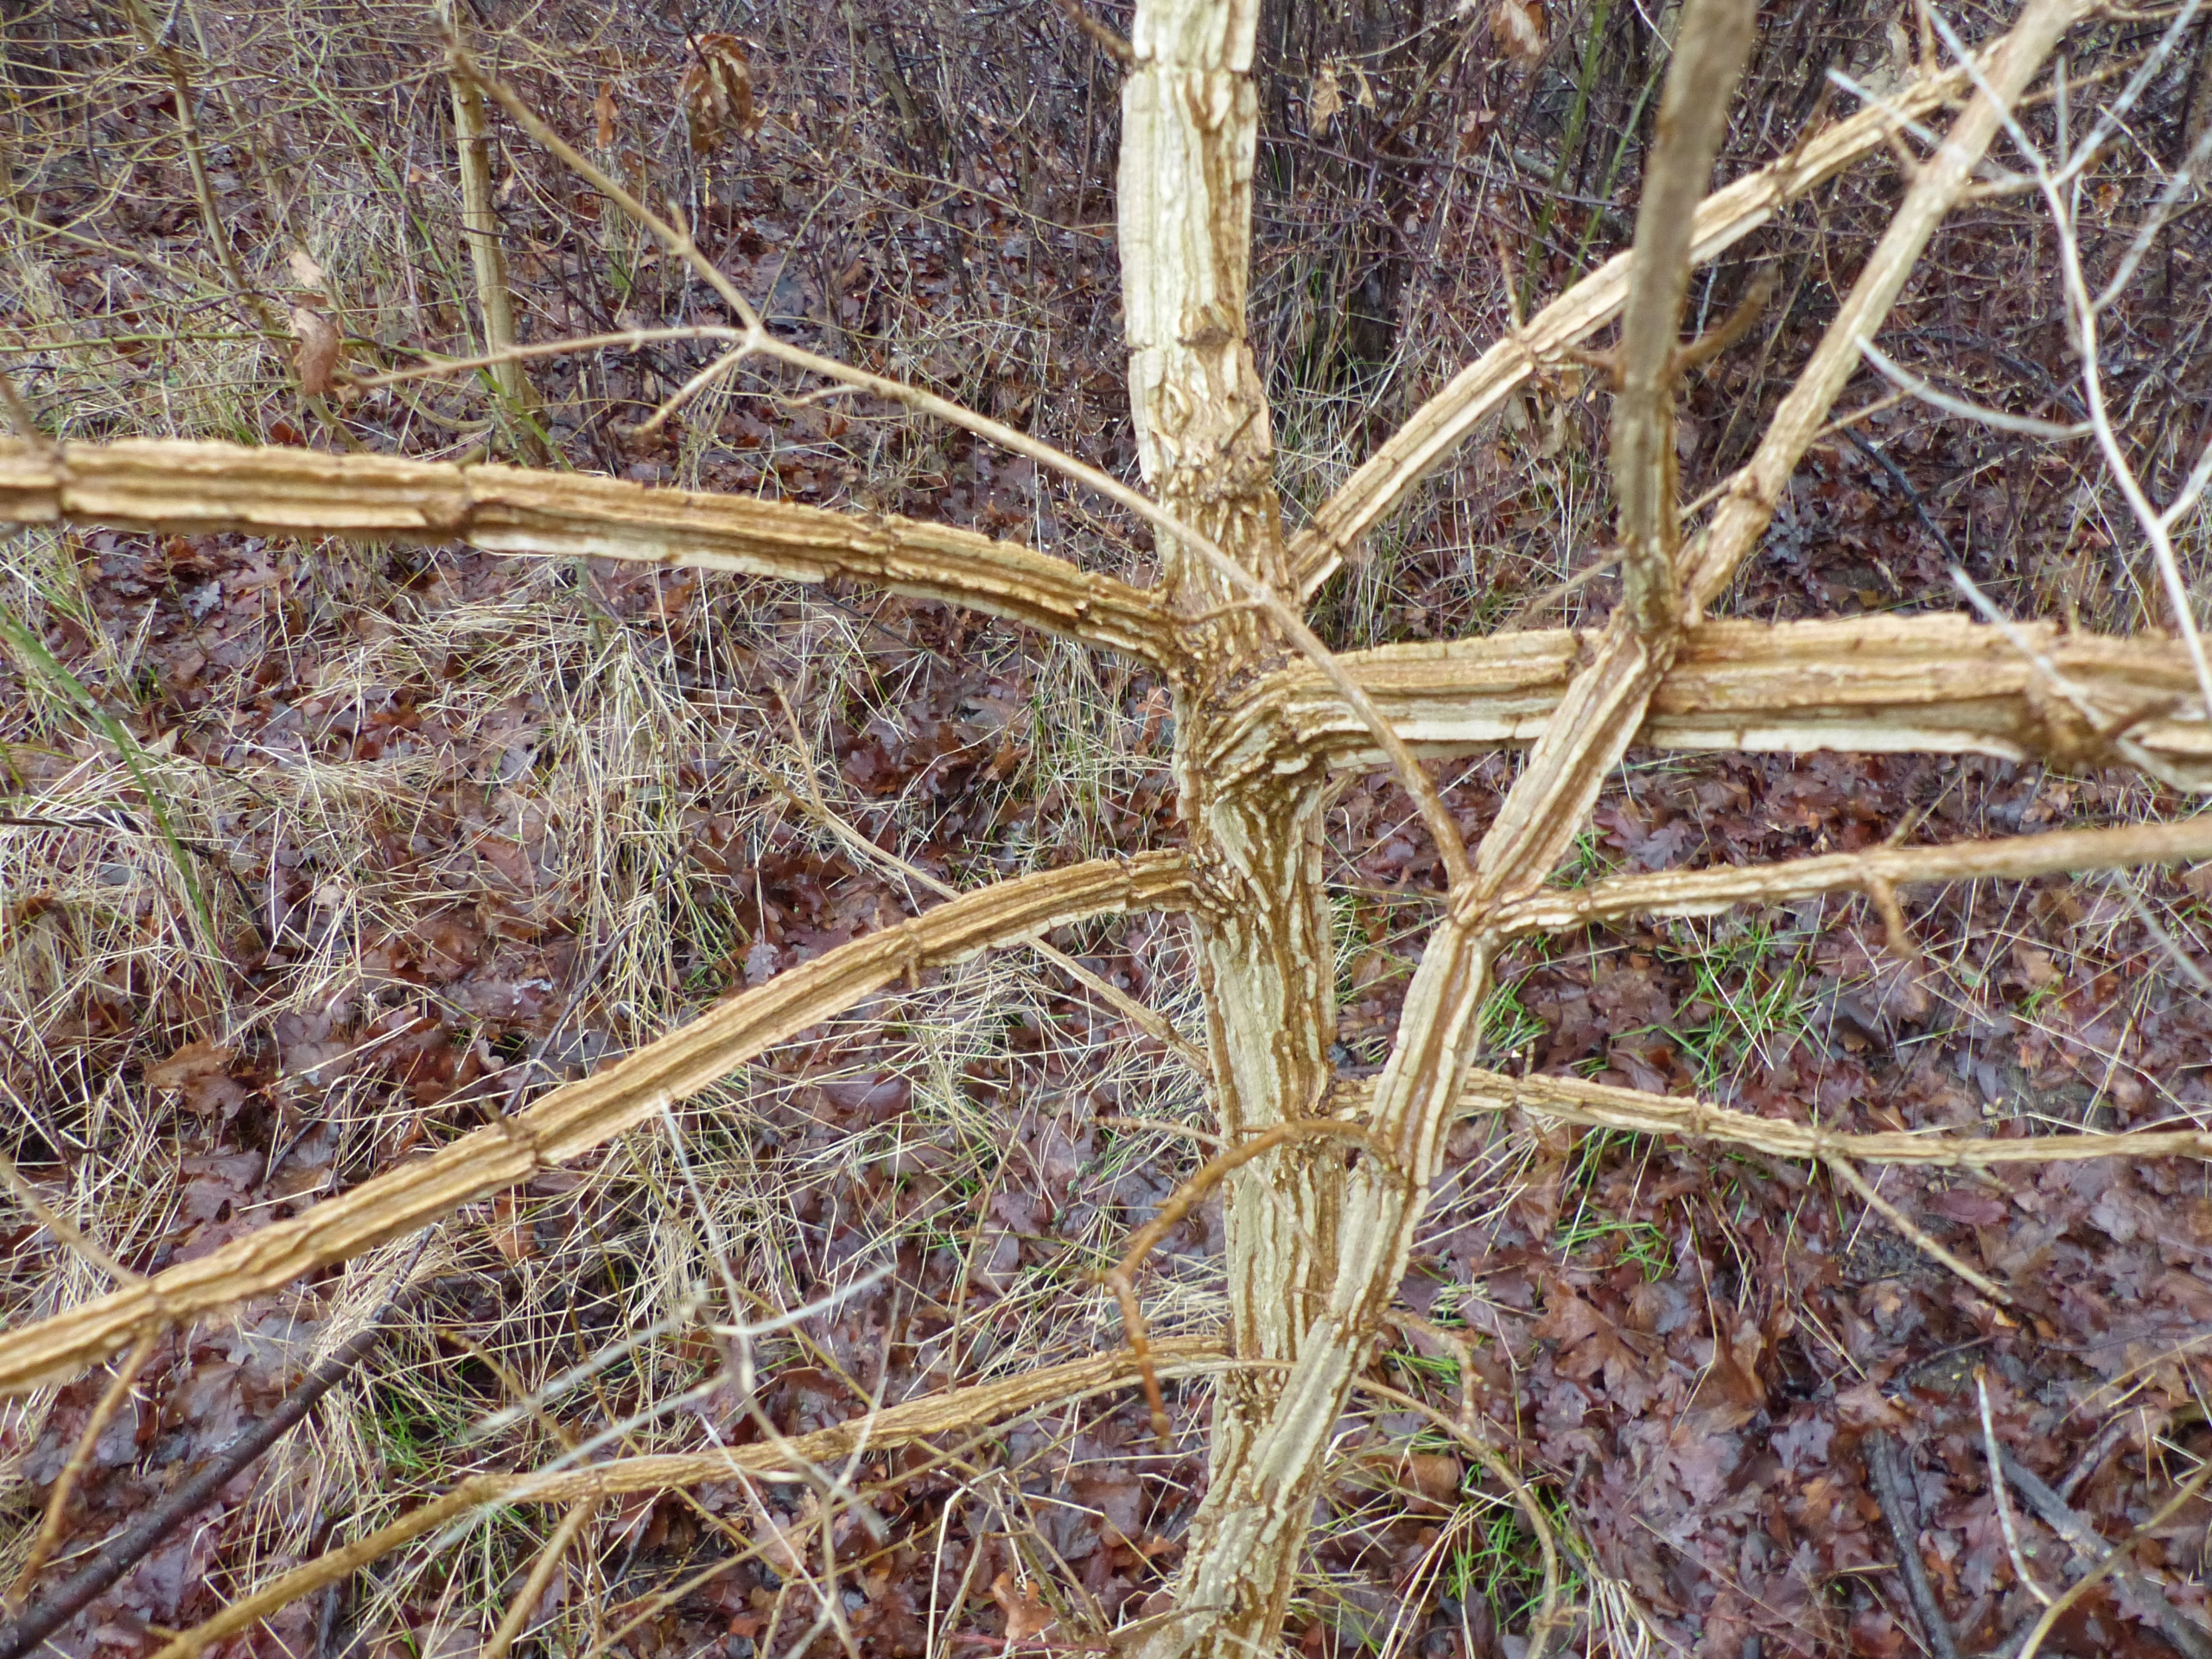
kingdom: Plantae
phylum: Tracheophyta
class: Magnoliopsida
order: Rosales
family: Ulmaceae
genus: Ulmus
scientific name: Ulmus minor
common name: Småbladet elm
